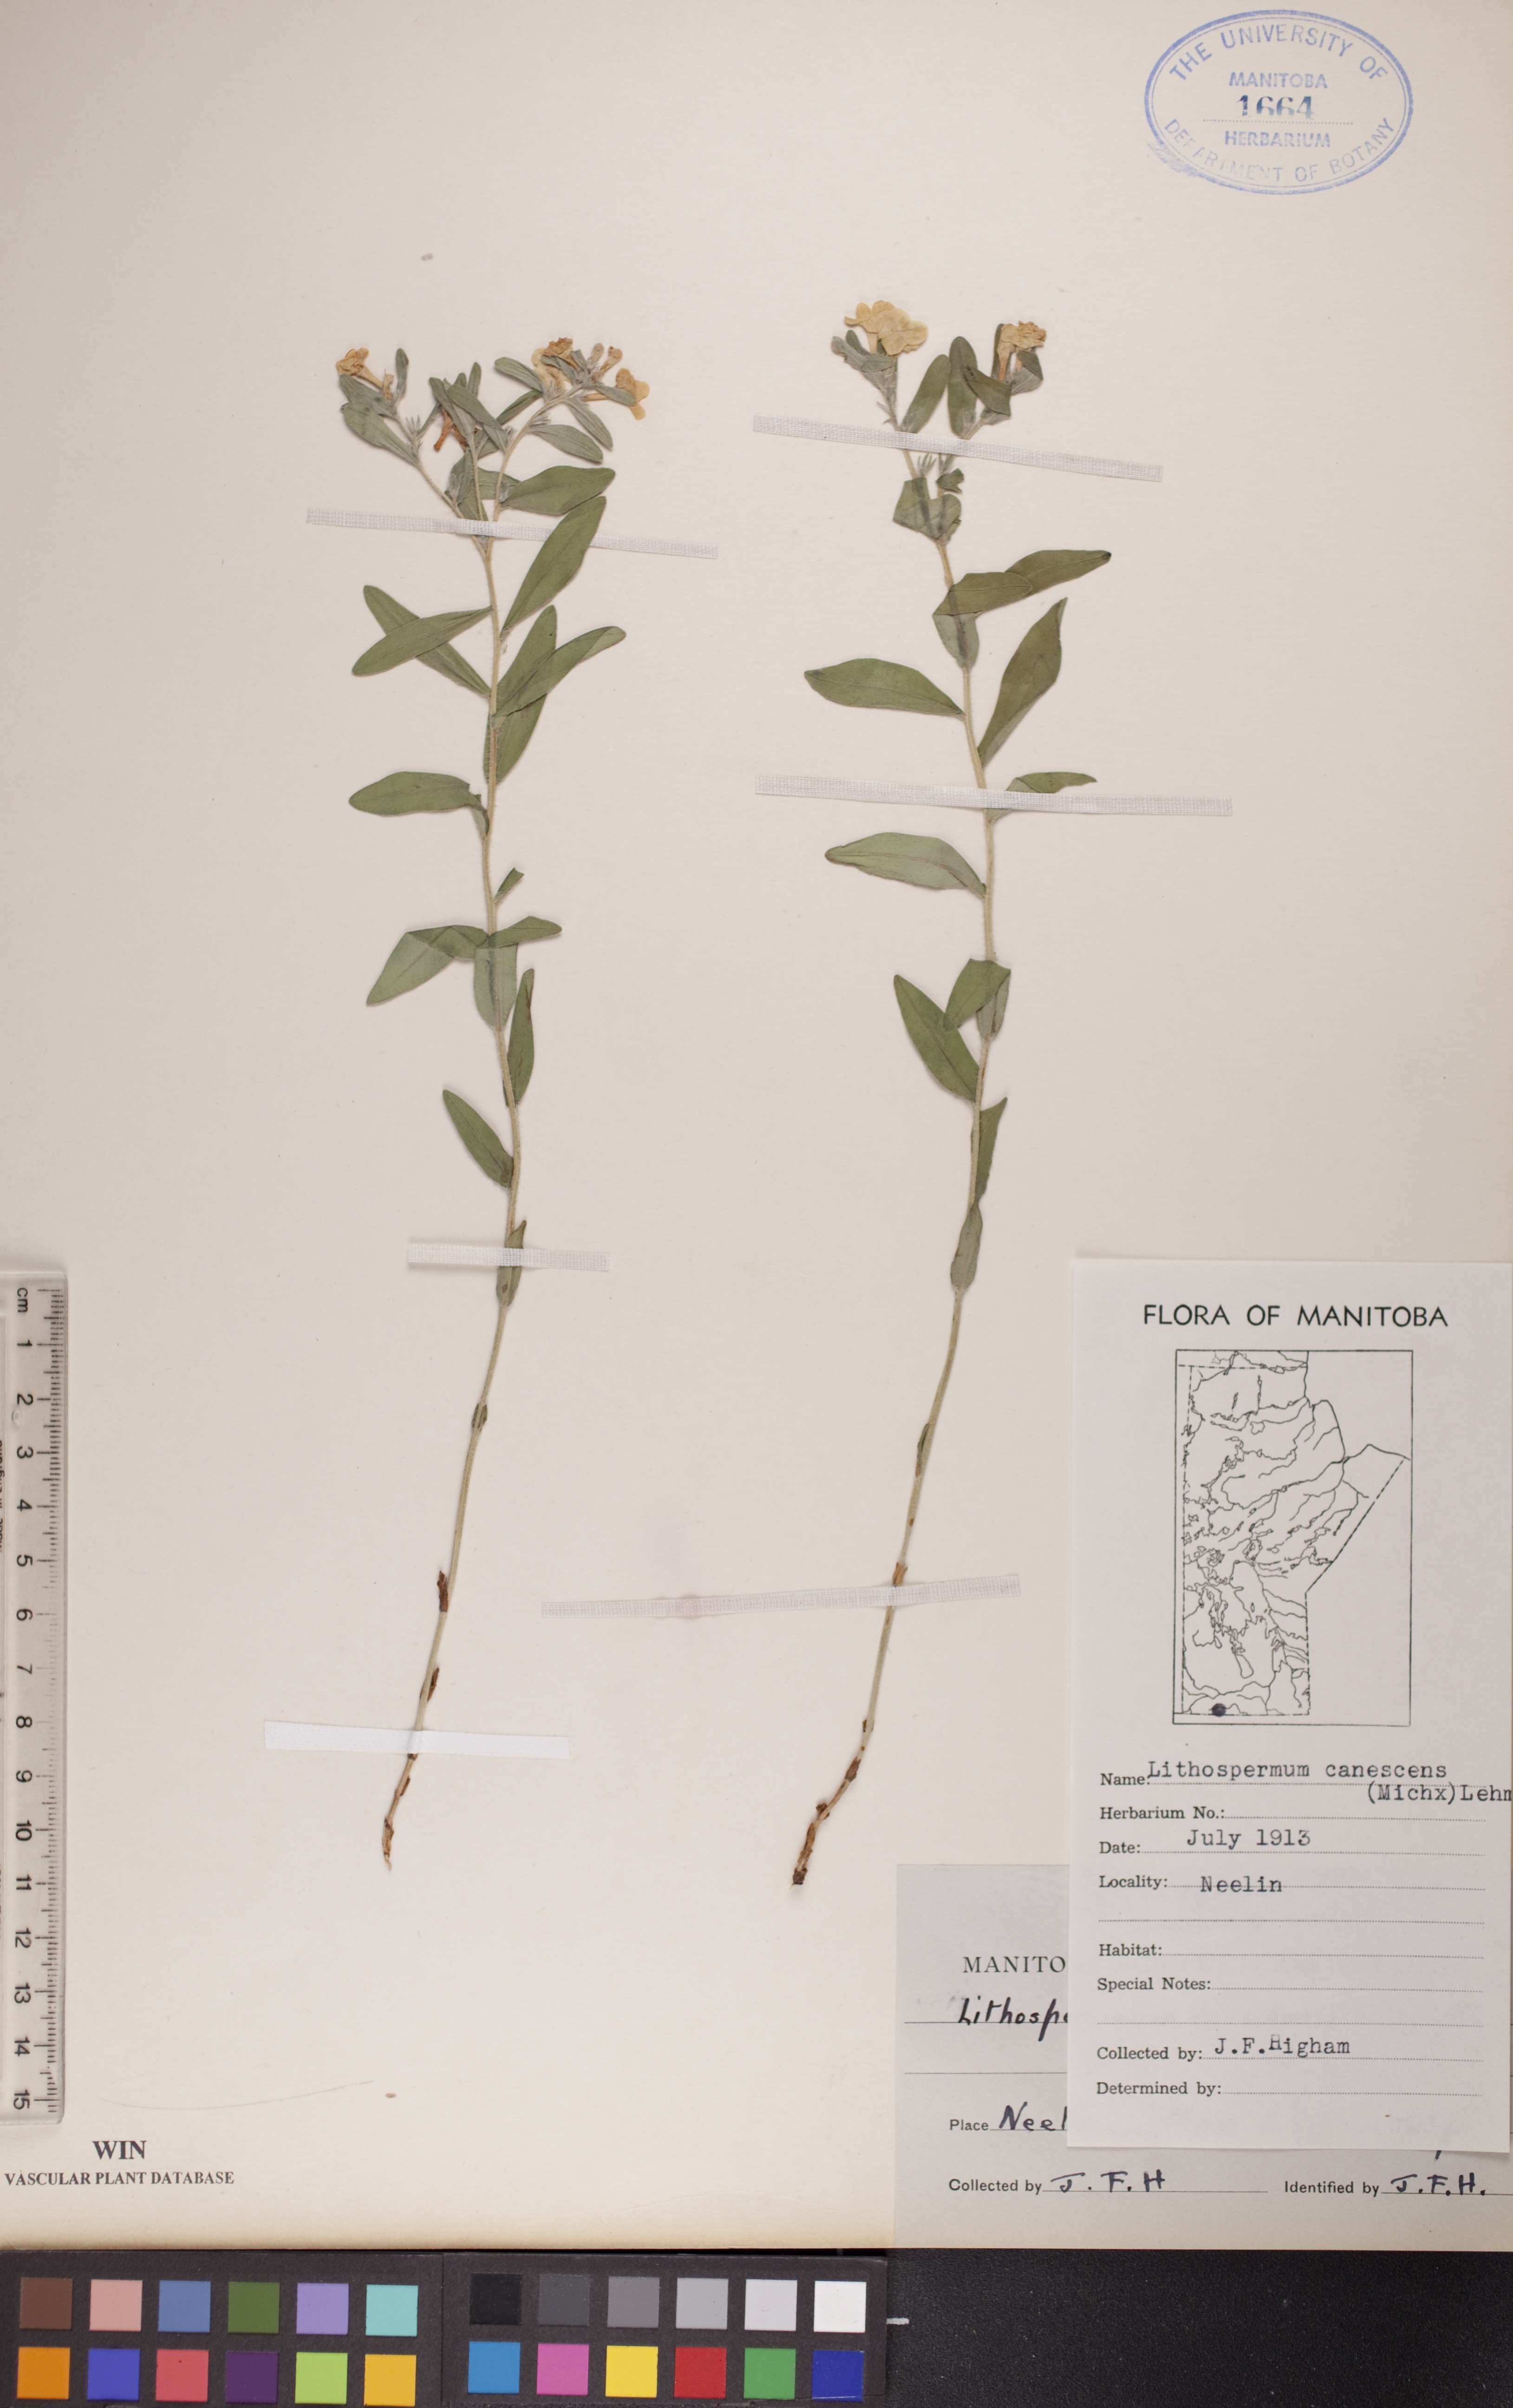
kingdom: Plantae
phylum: Tracheophyta
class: Magnoliopsida
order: Boraginales
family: Boraginaceae
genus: Lithospermum
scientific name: Lithospermum canescens
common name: Hoary puccoon
